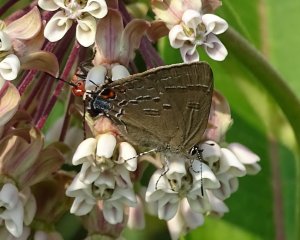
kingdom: Animalia
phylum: Arthropoda
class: Insecta
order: Lepidoptera
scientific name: Lepidoptera
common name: Butterflies
